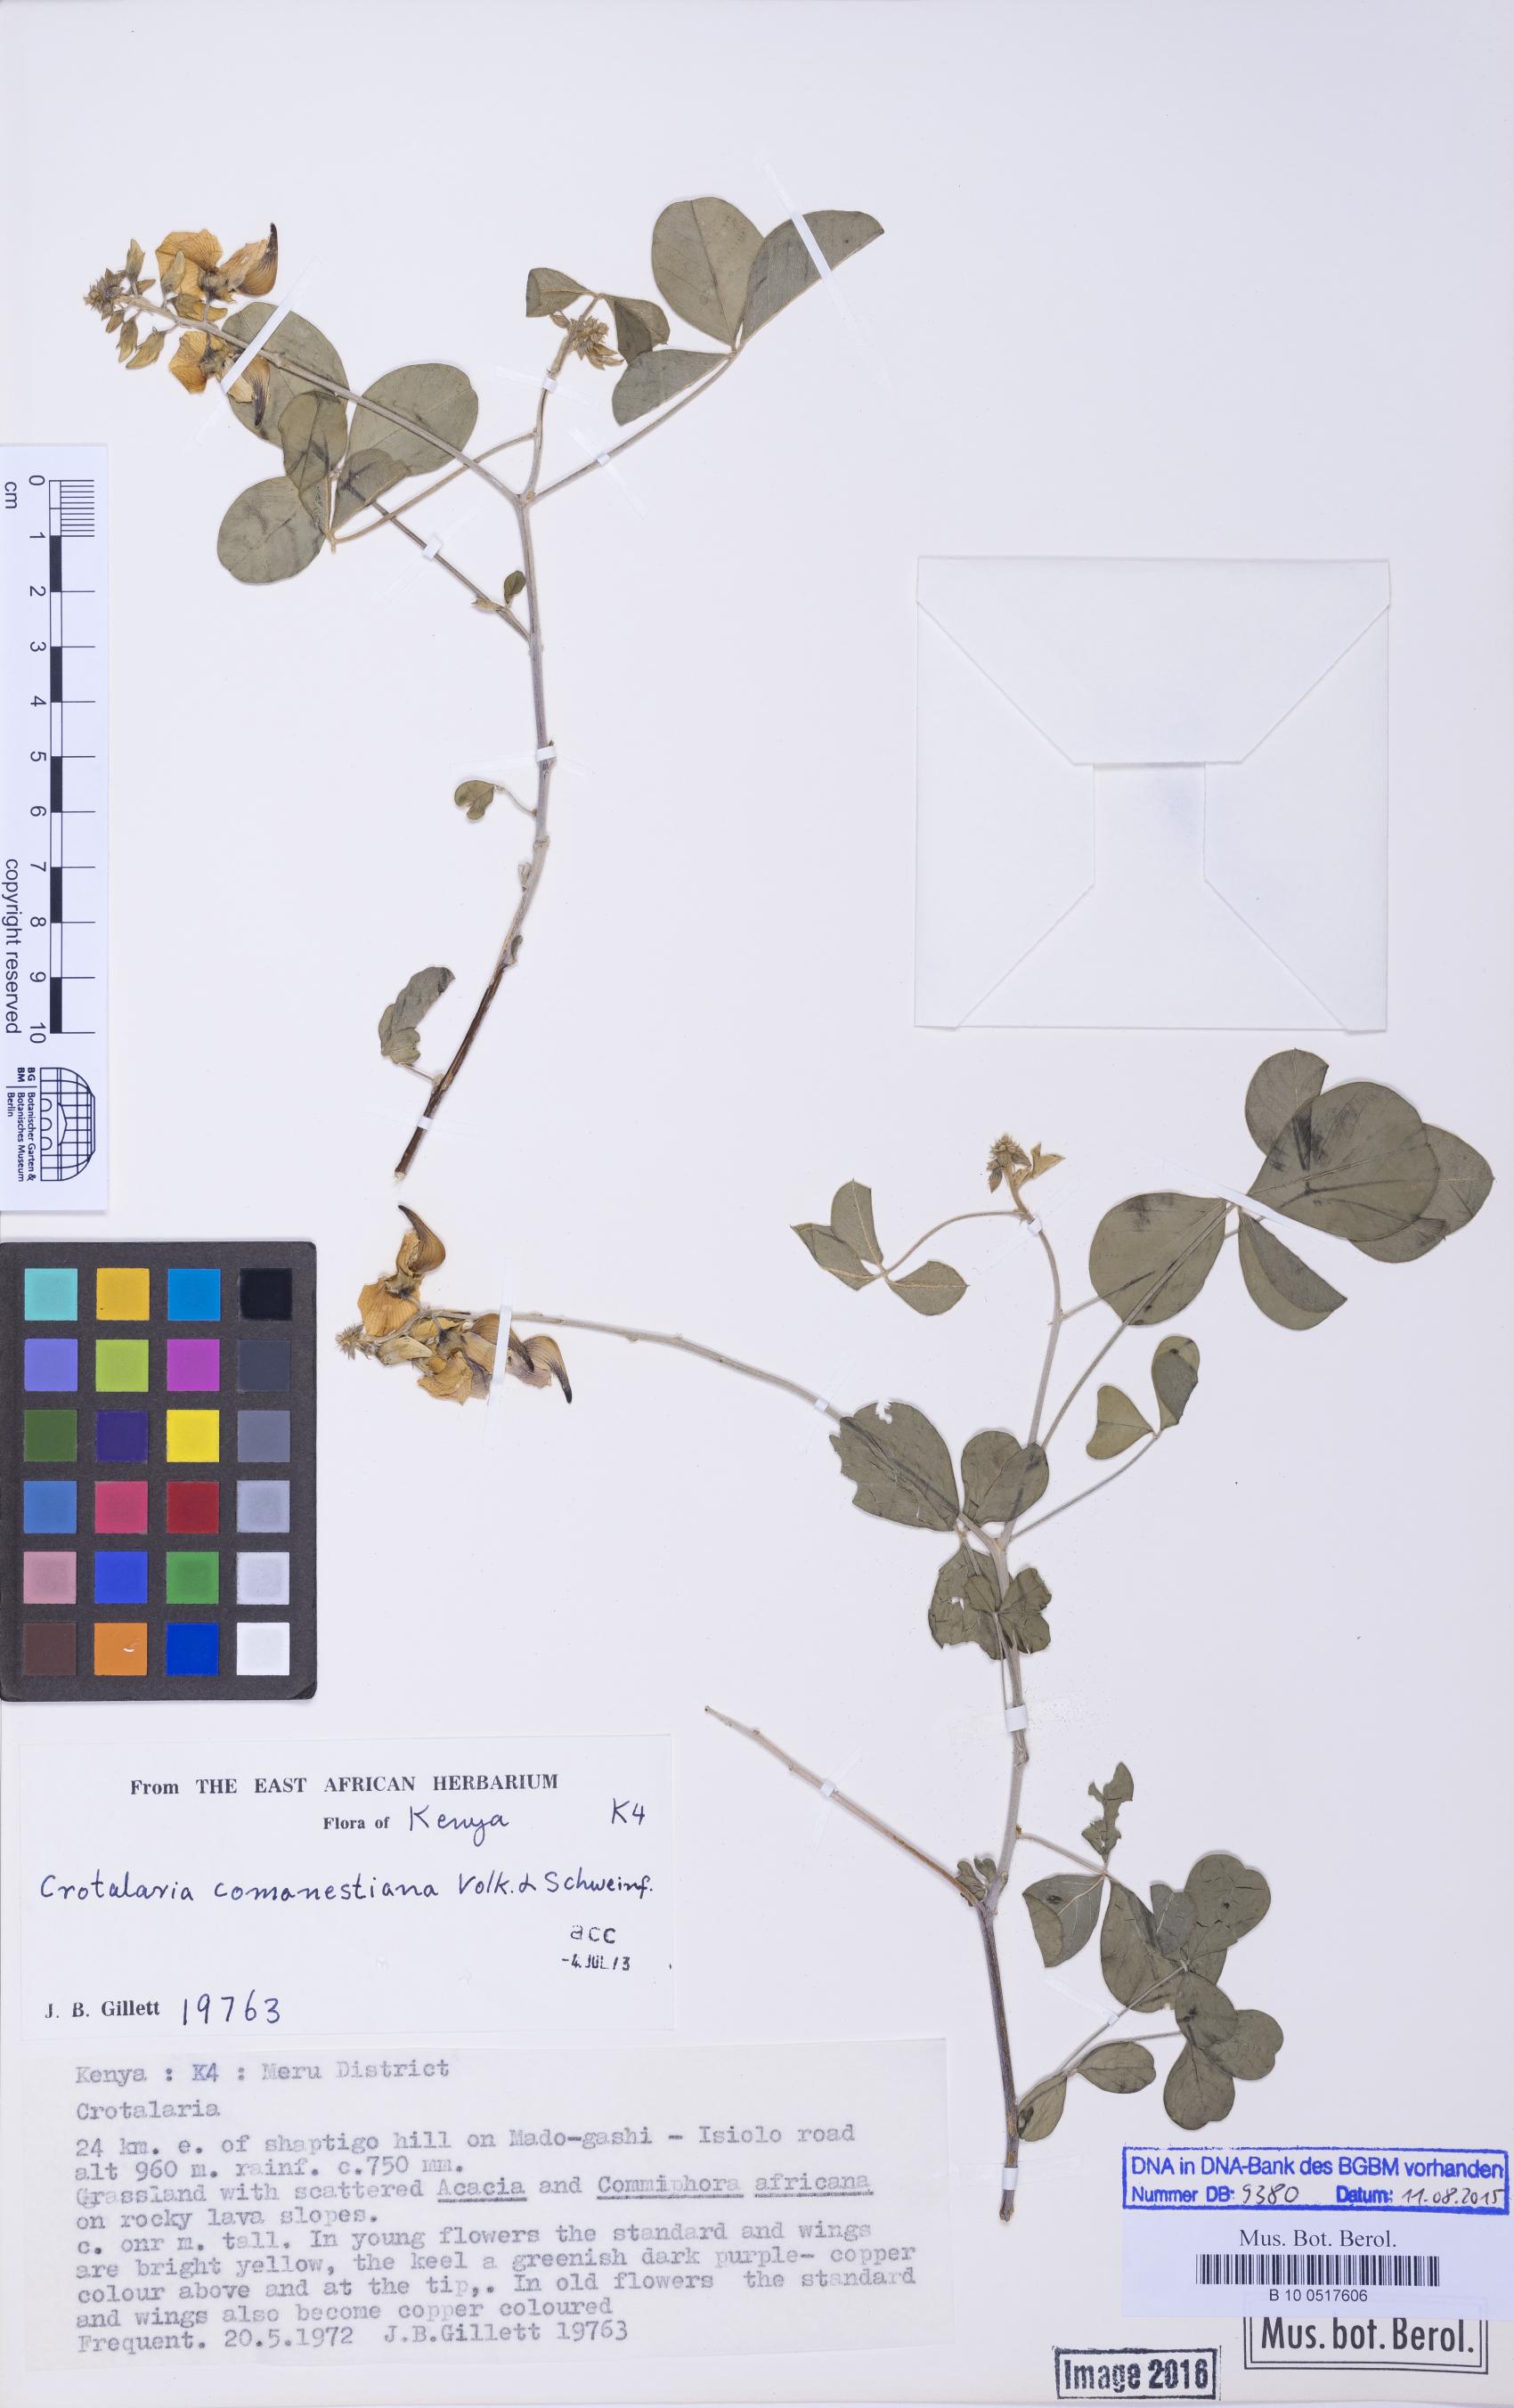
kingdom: Plantae
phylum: Tracheophyta
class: Magnoliopsida
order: Fabales
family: Fabaceae
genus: Crotalaria
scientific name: Crotalaria comanestiana
